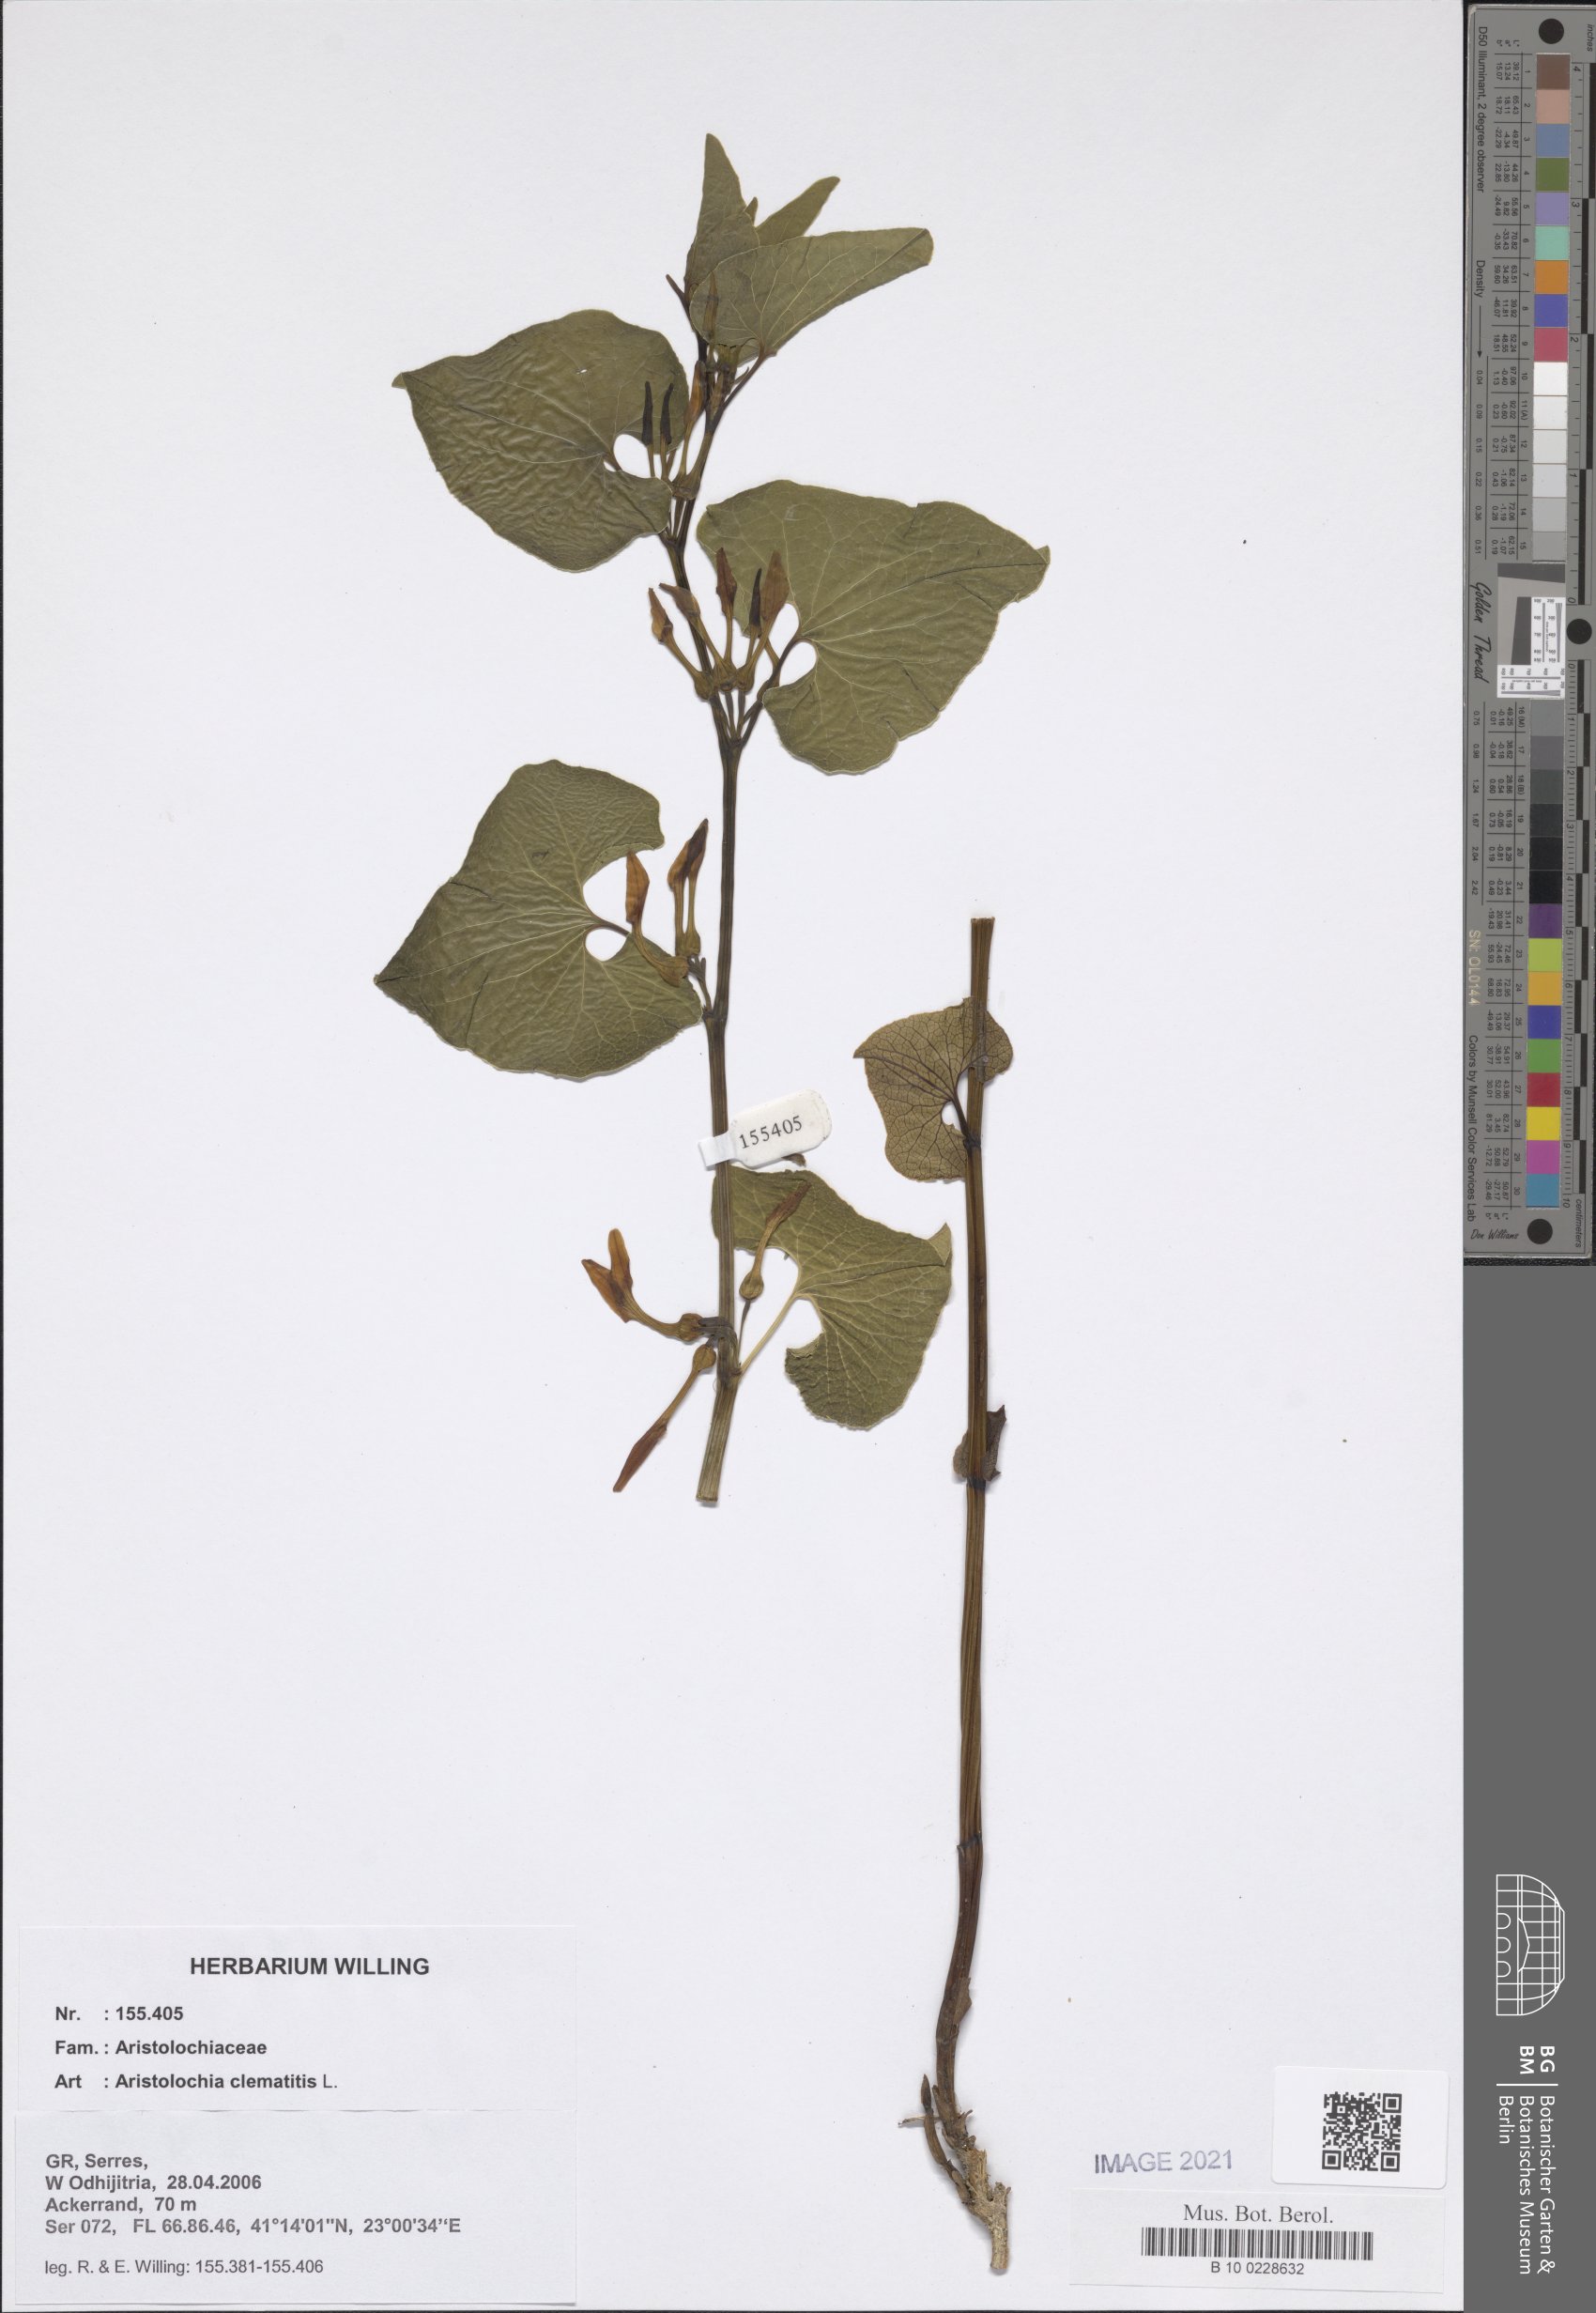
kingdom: Plantae
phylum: Tracheophyta
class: Magnoliopsida
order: Piperales
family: Aristolochiaceae
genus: Aristolochia
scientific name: Aristolochia clematitis
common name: Birthwort
